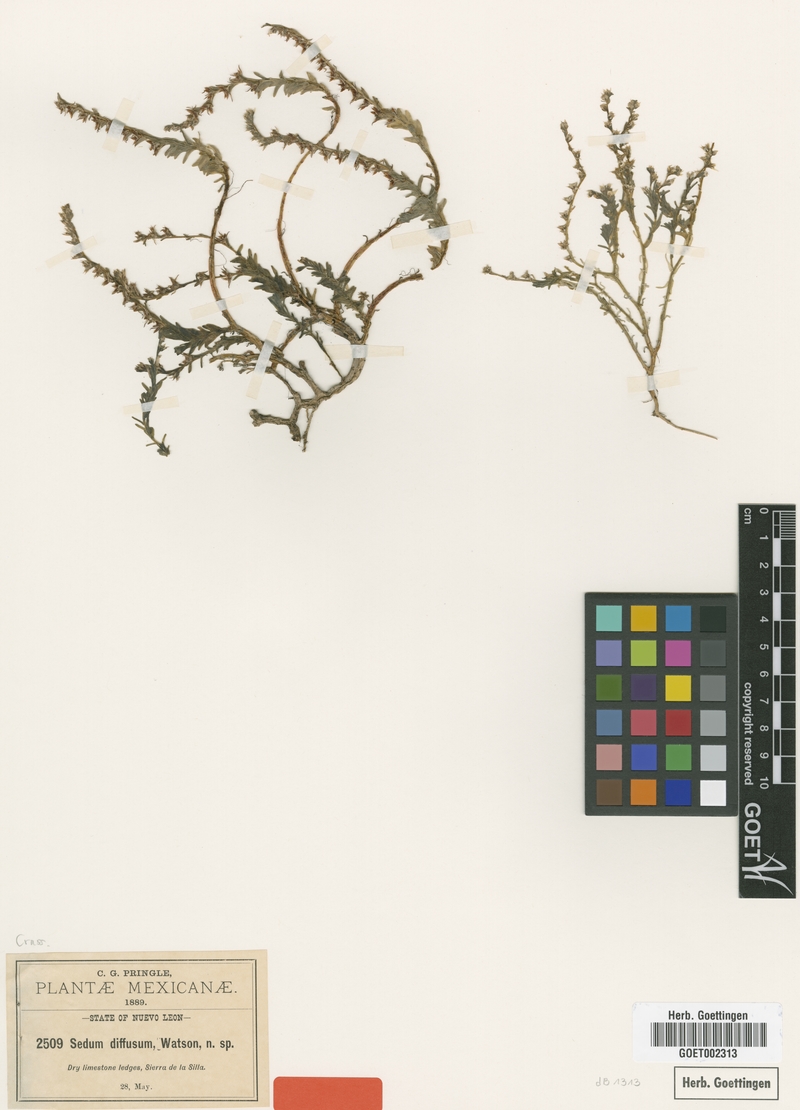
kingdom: Plantae
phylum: Tracheophyta
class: Magnoliopsida
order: Saxifragales
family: Crassulaceae
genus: Sedum
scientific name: Sedum diffusum
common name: Stonecrop
